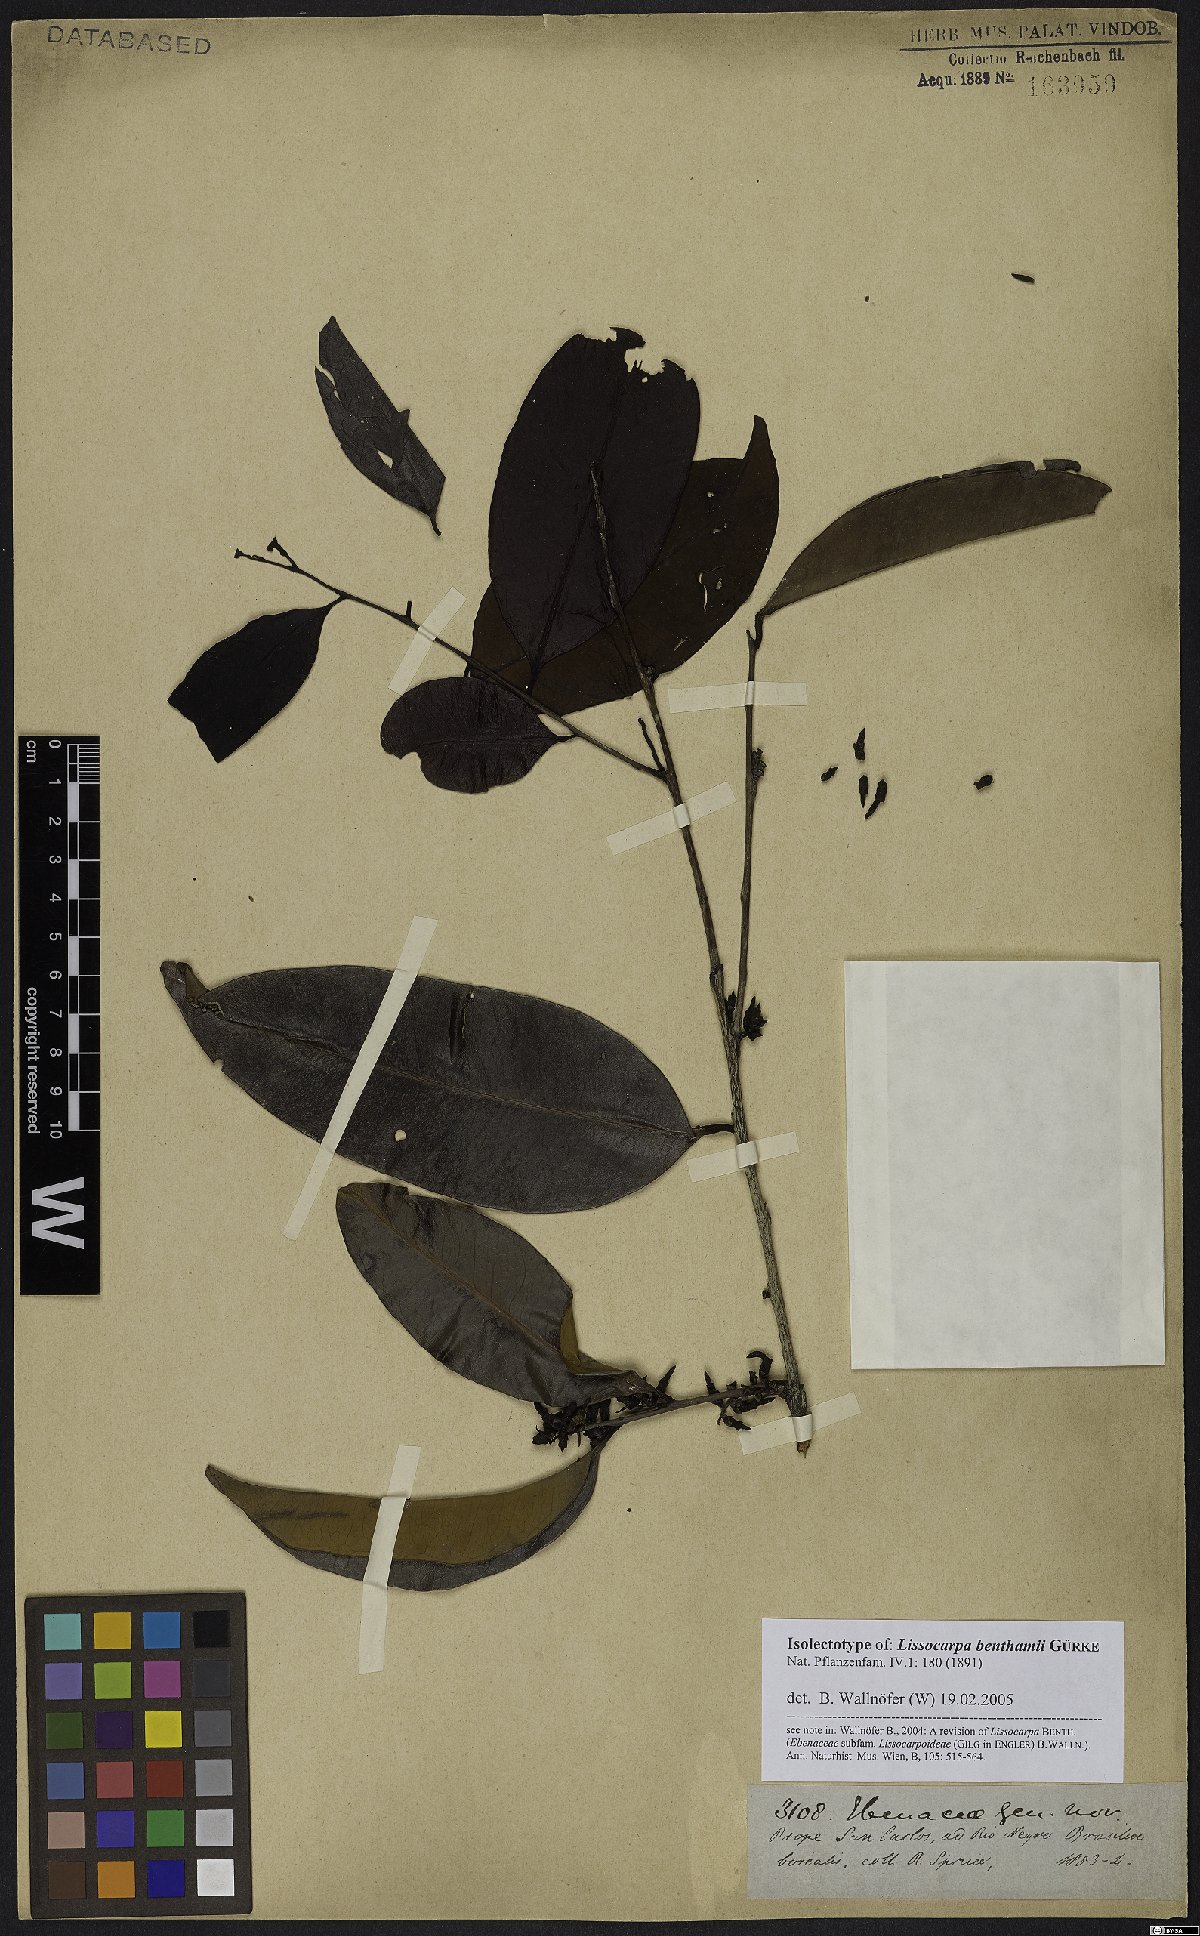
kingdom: Plantae
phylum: Tracheophyta
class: Magnoliopsida
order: Ericales
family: Ebenaceae
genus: Lissocarpa
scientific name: Lissocarpa benthamii
